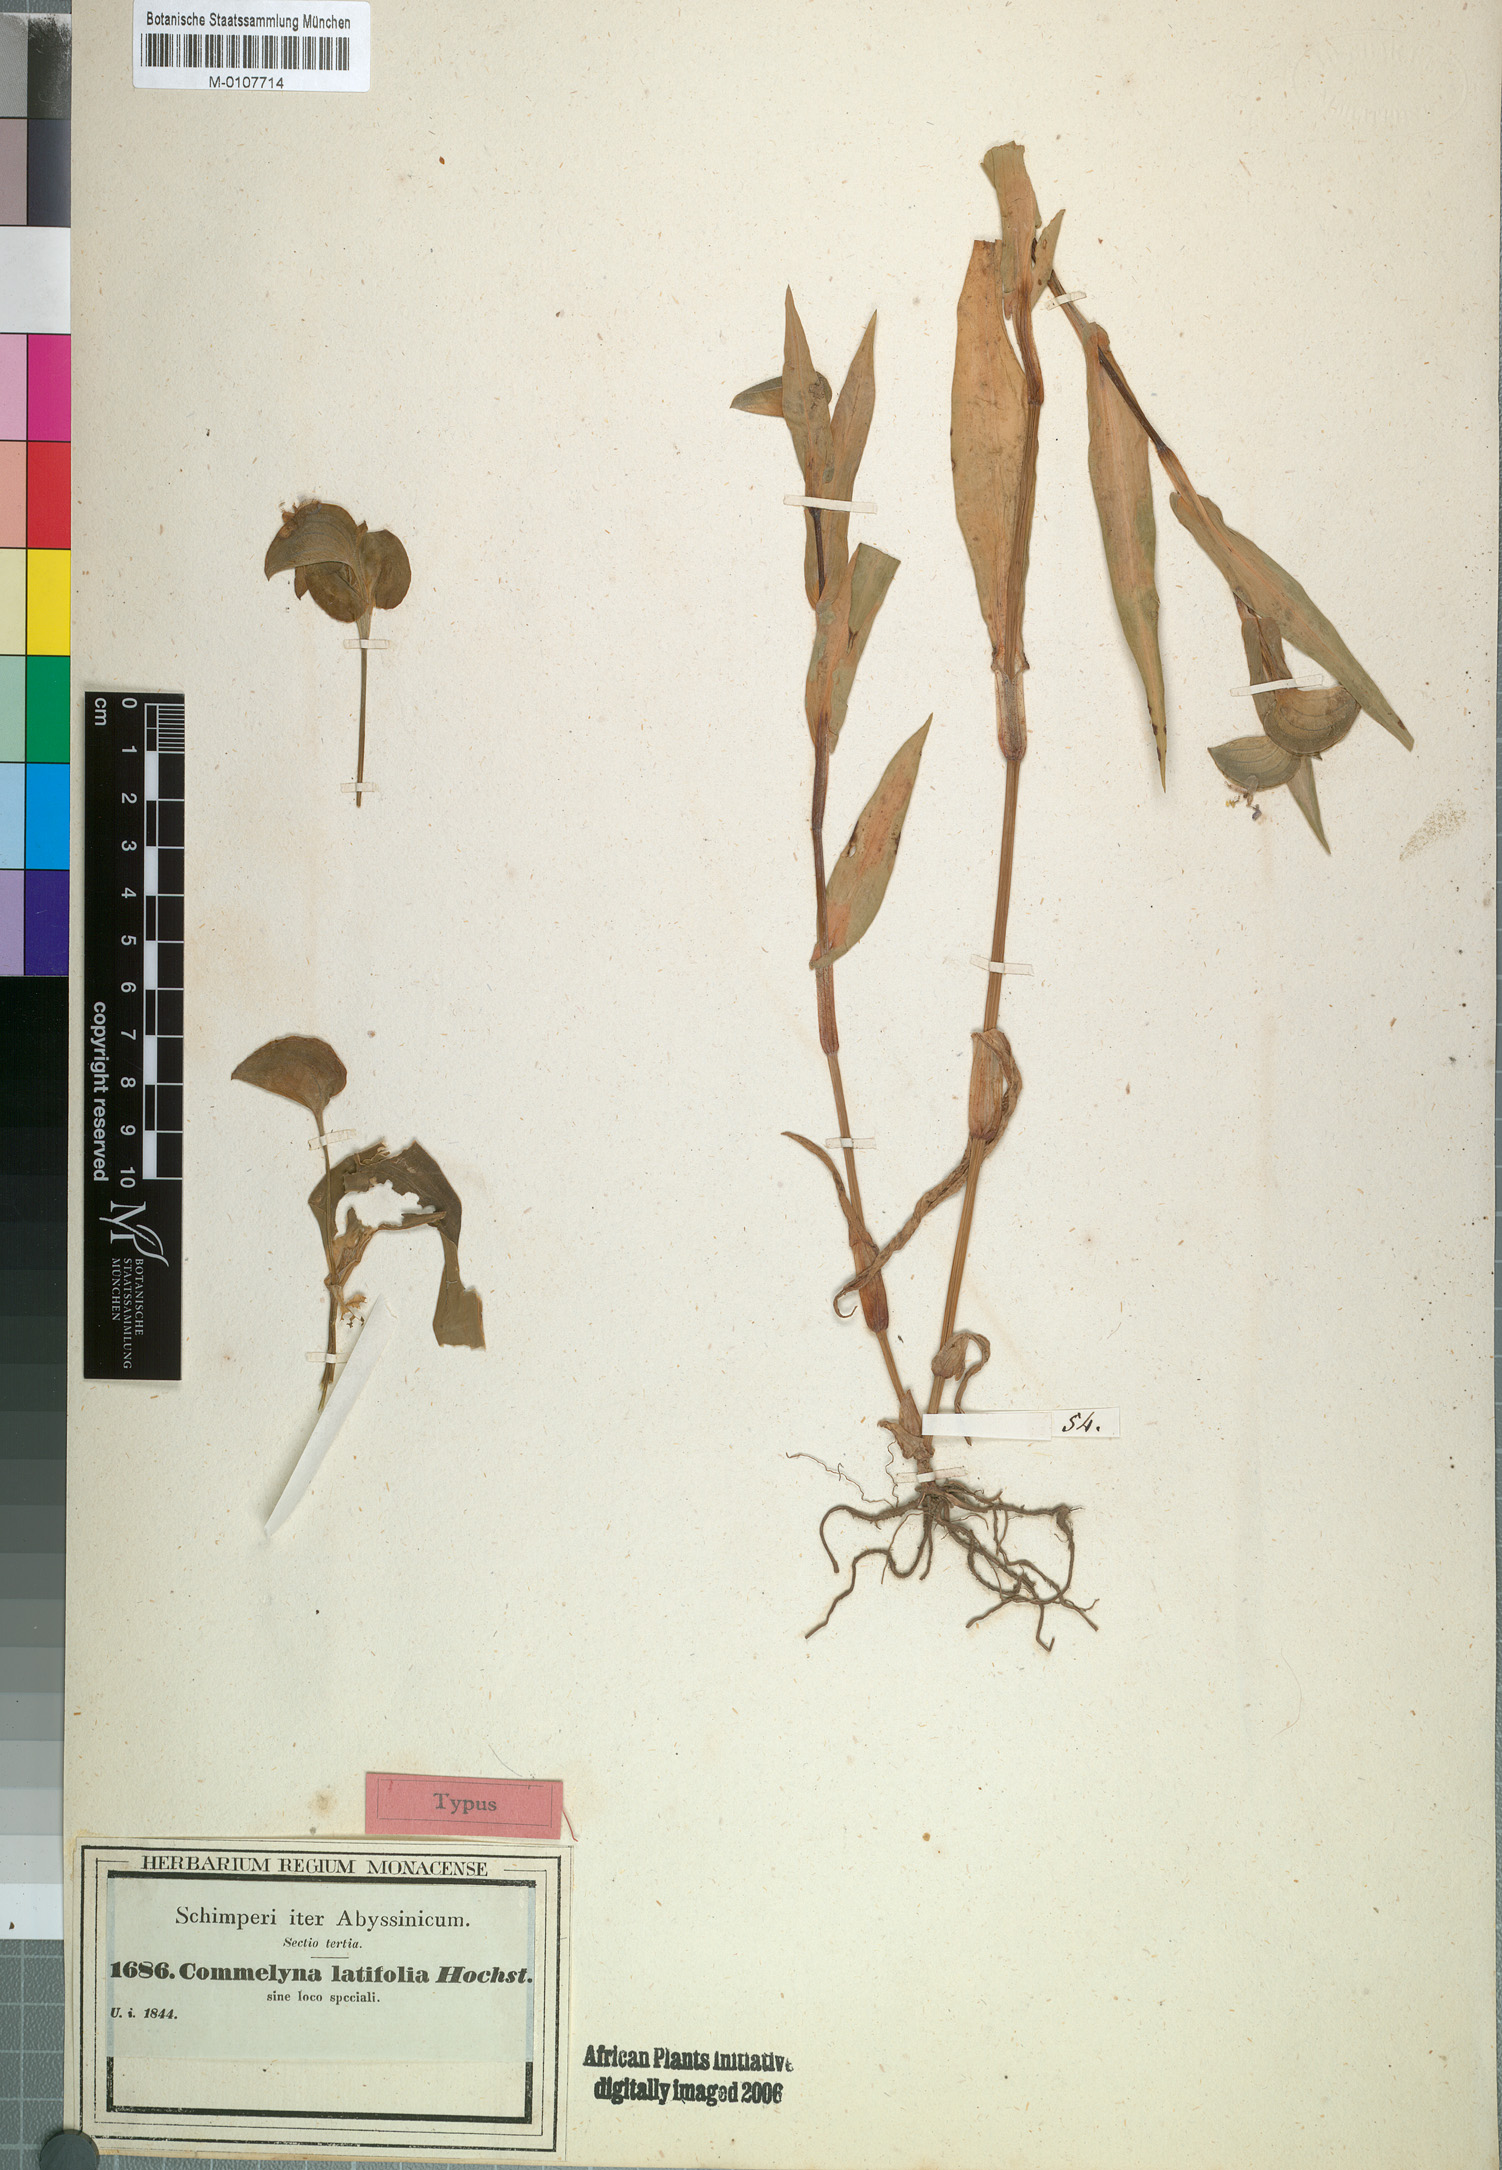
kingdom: Plantae
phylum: Tracheophyta
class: Liliopsida
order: Commelinales
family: Commelinaceae
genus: Commelina
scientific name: Commelina latifolia
